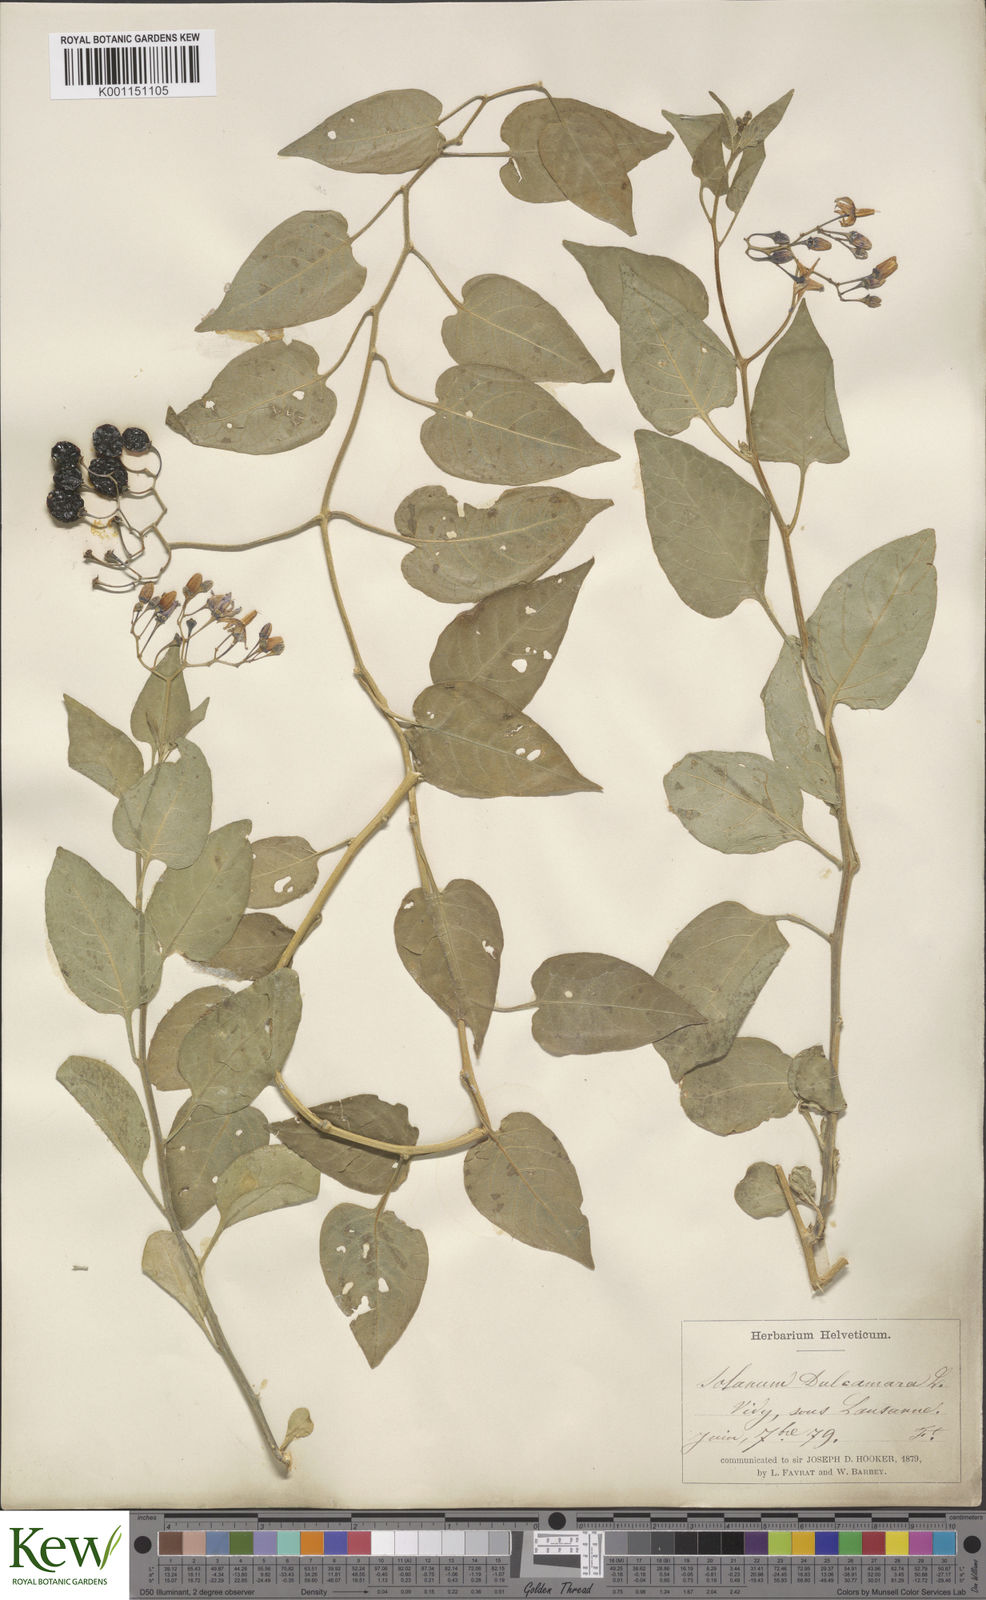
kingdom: Plantae
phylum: Tracheophyta
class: Magnoliopsida
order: Solanales
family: Solanaceae
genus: Solanum
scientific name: Solanum dulcamara
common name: Climbing nightshade
